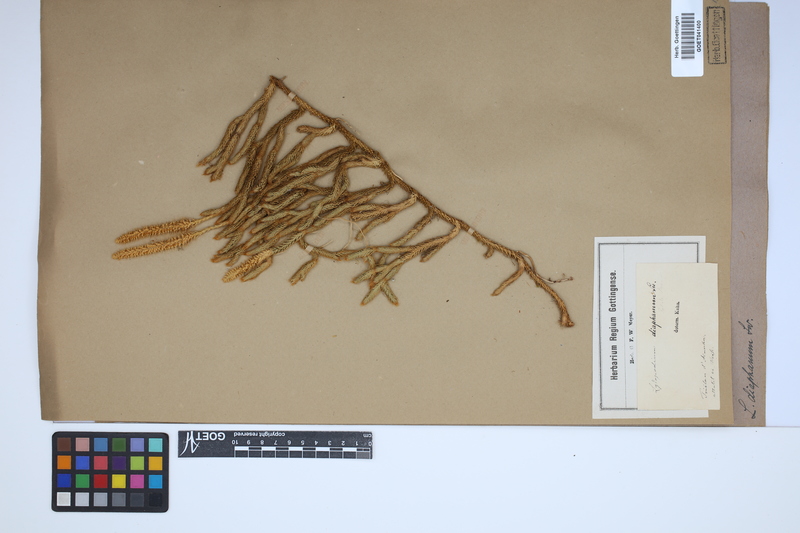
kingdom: Plantae
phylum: Tracheophyta
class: Lycopodiopsida
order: Lycopodiales
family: Lycopodiaceae
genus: Lycopodium
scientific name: Lycopodium diaphanum
